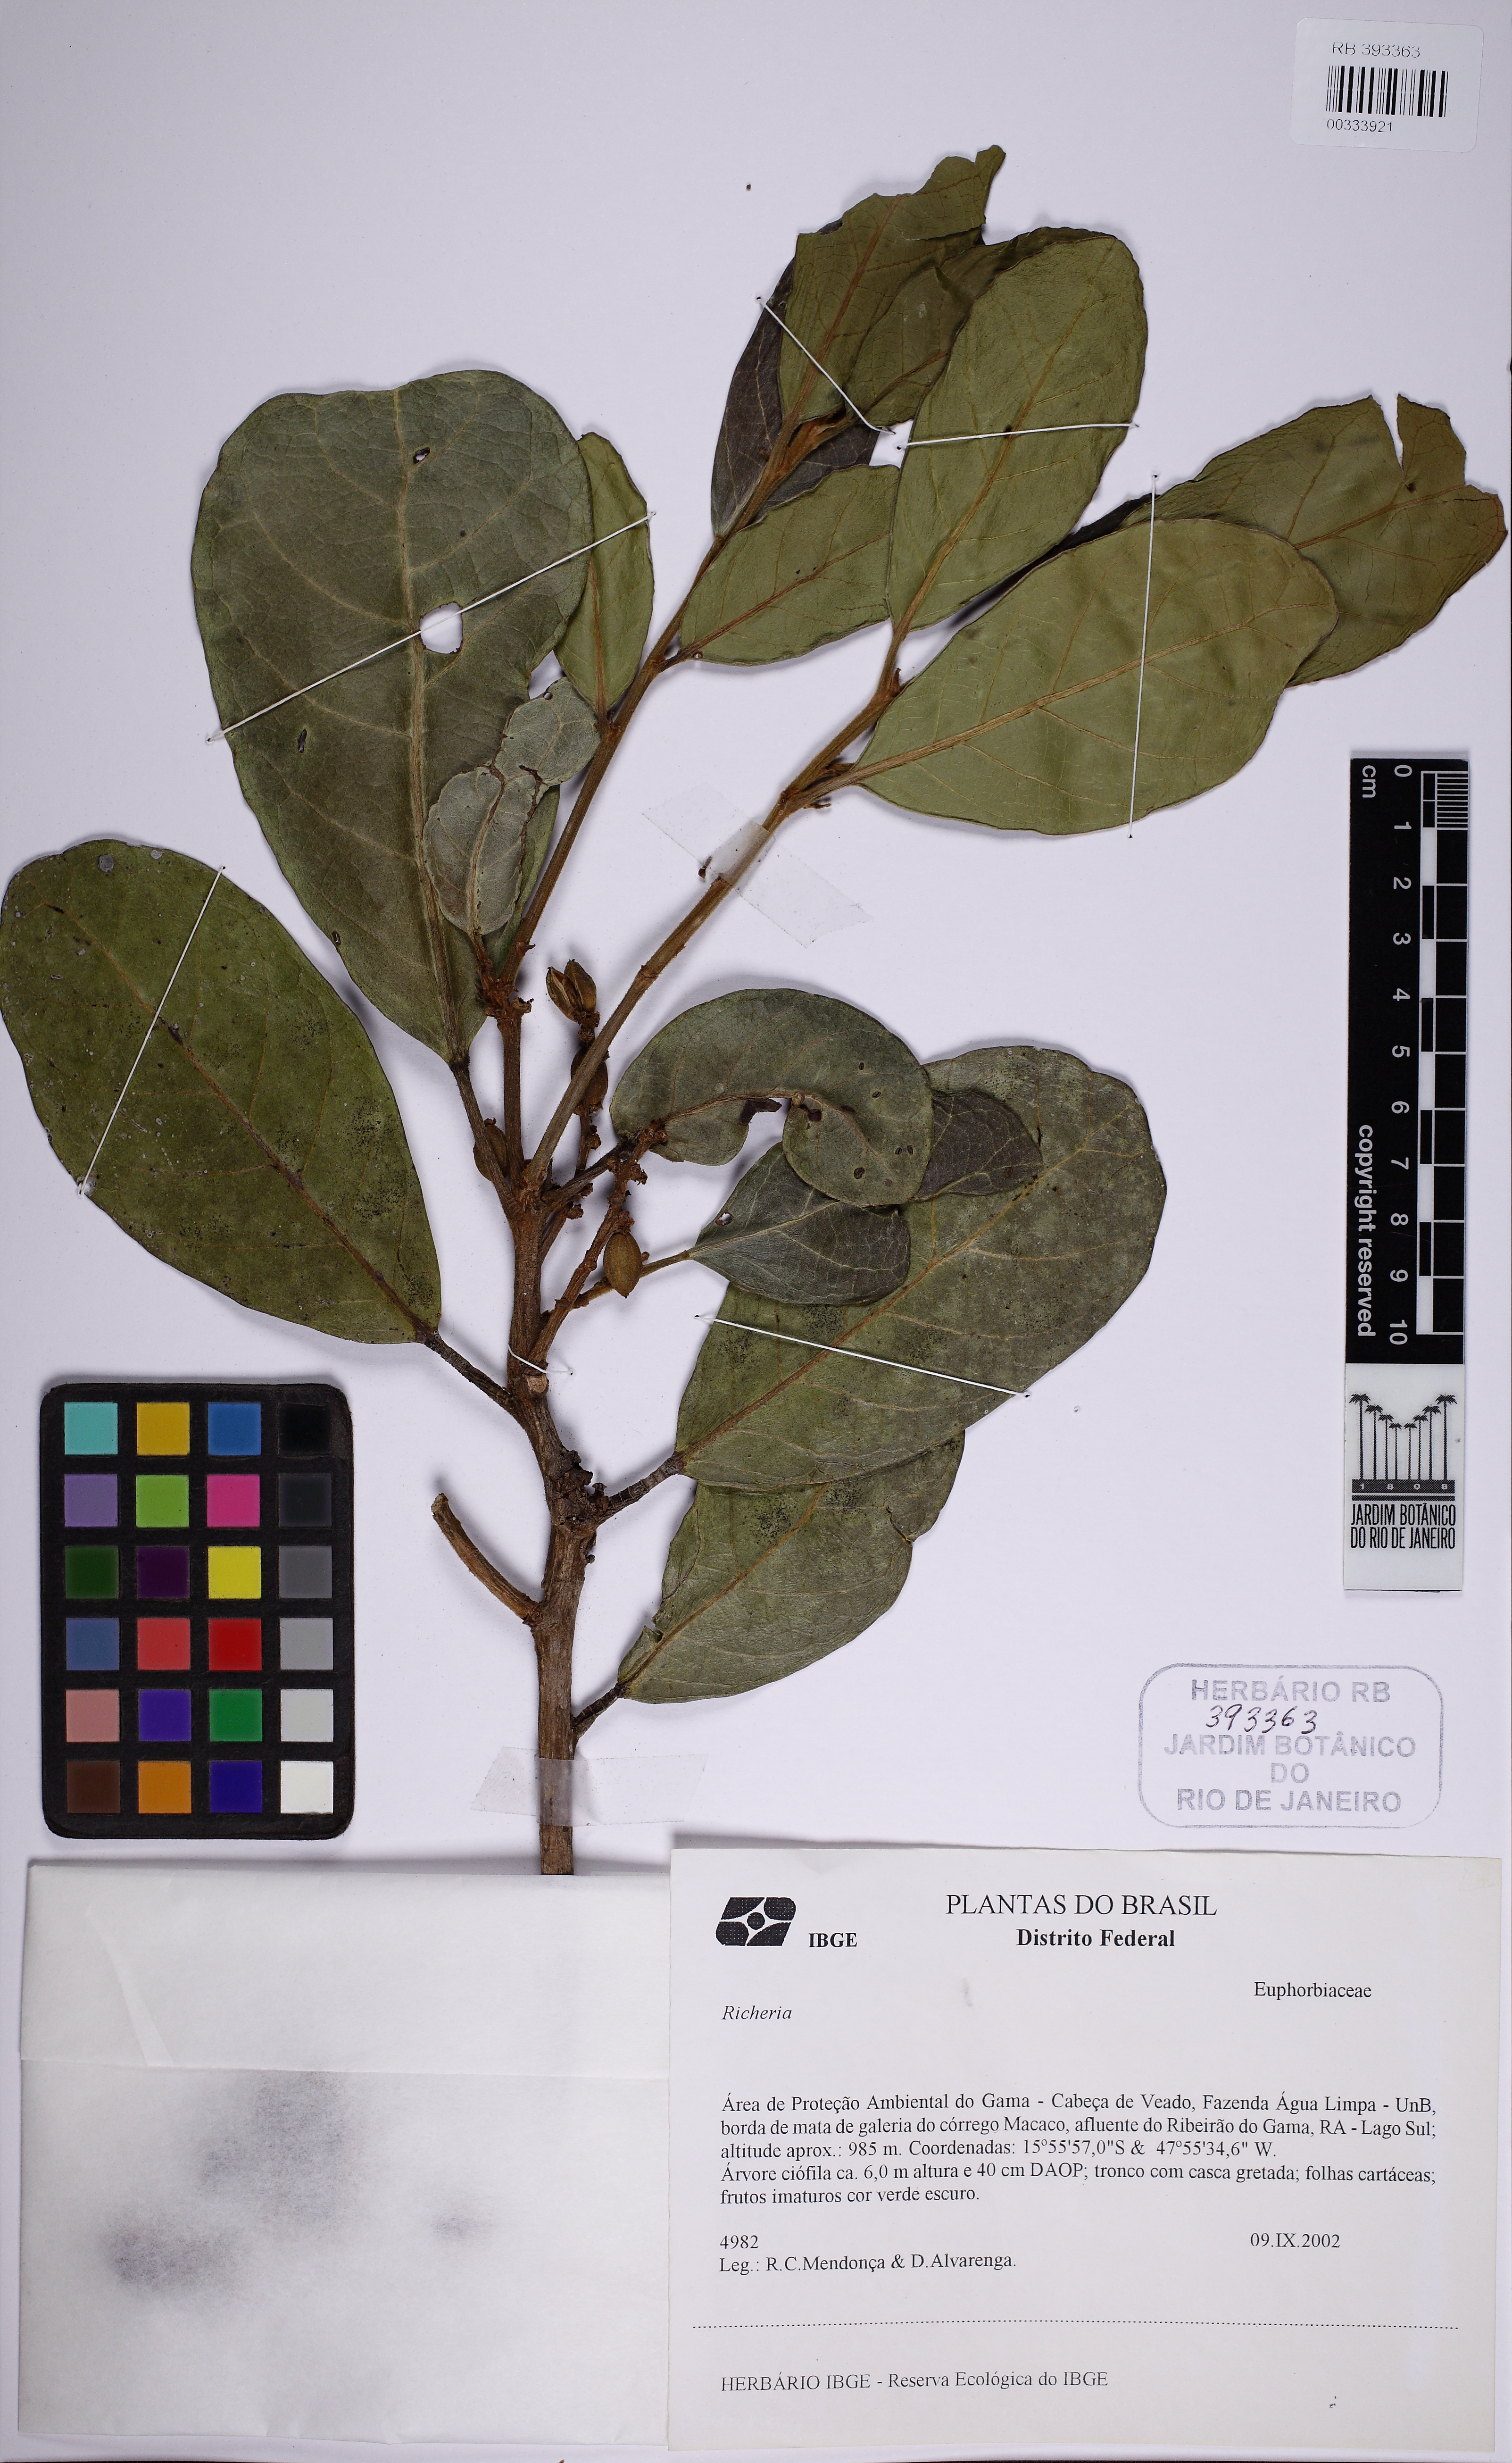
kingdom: Plantae
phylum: Tracheophyta
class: Magnoliopsida
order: Malpighiales
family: Phyllanthaceae
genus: Richeria
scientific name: Richeria
